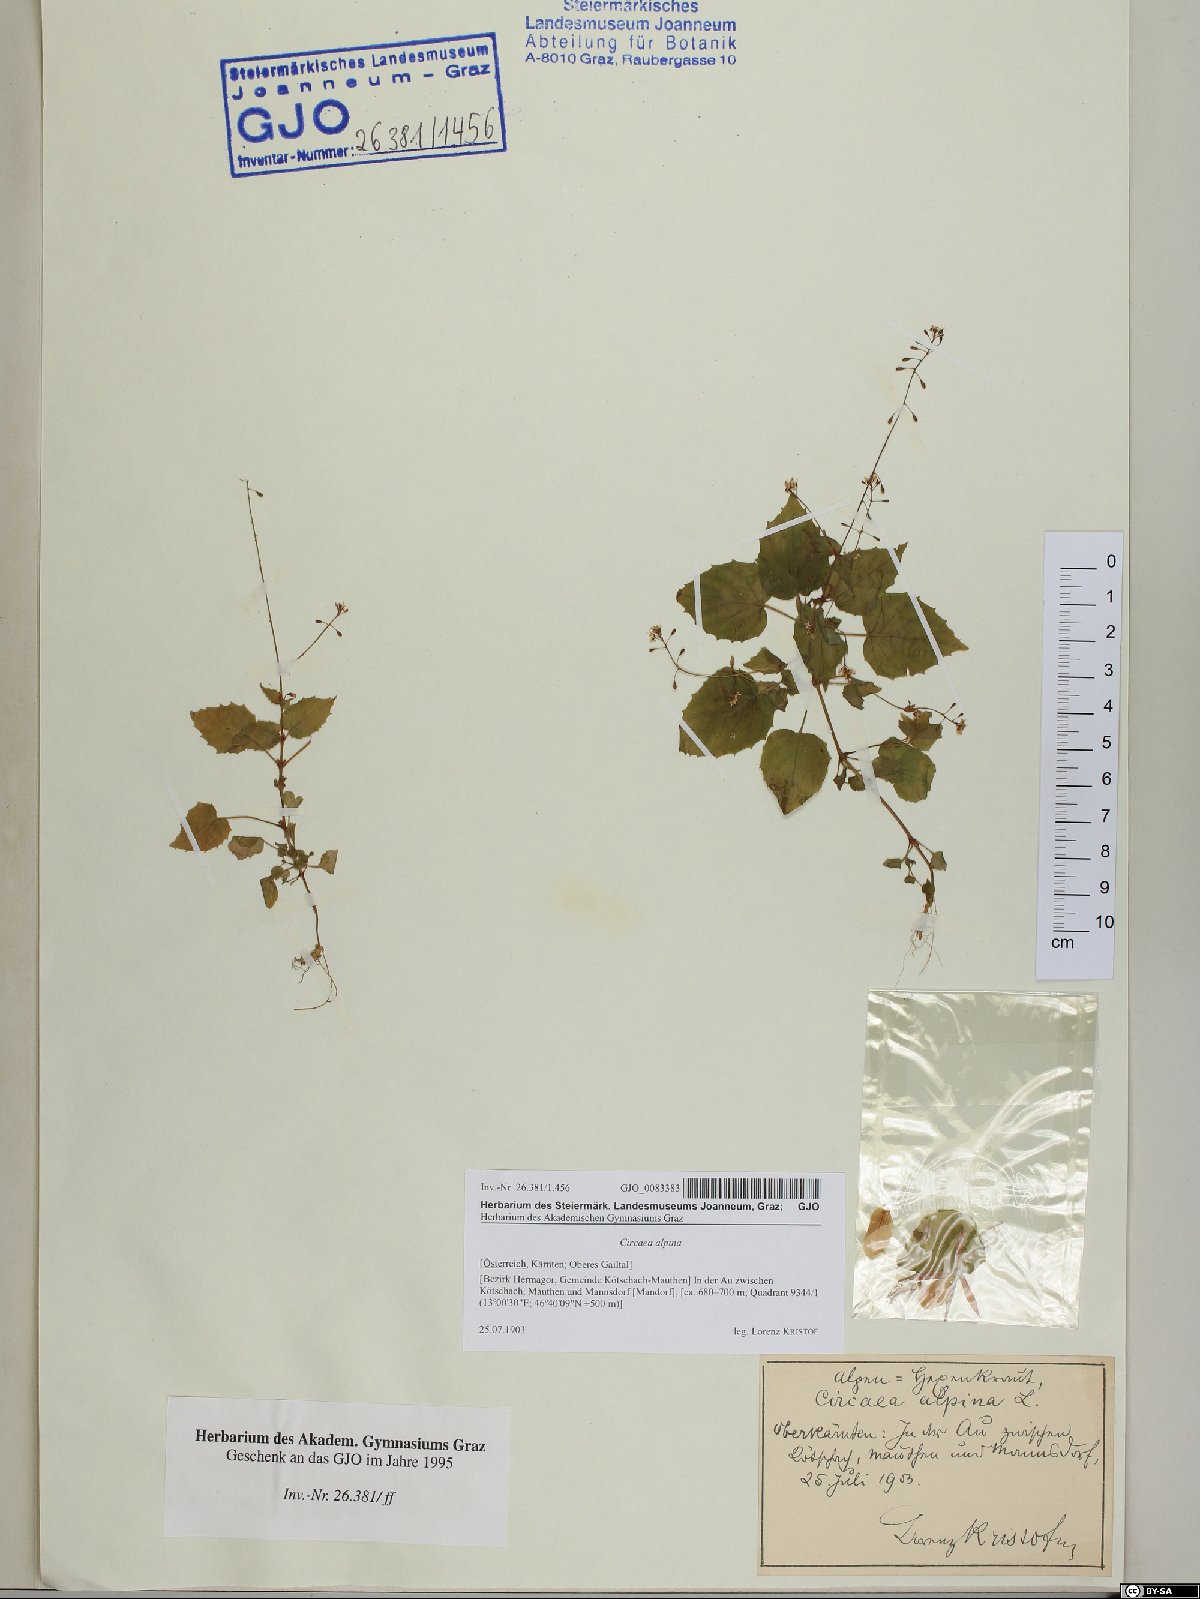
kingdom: Plantae
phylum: Tracheophyta
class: Magnoliopsida
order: Myrtales
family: Onagraceae
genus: Circaea
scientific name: Circaea alpina
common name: Alpine enchanter's-nightshade
